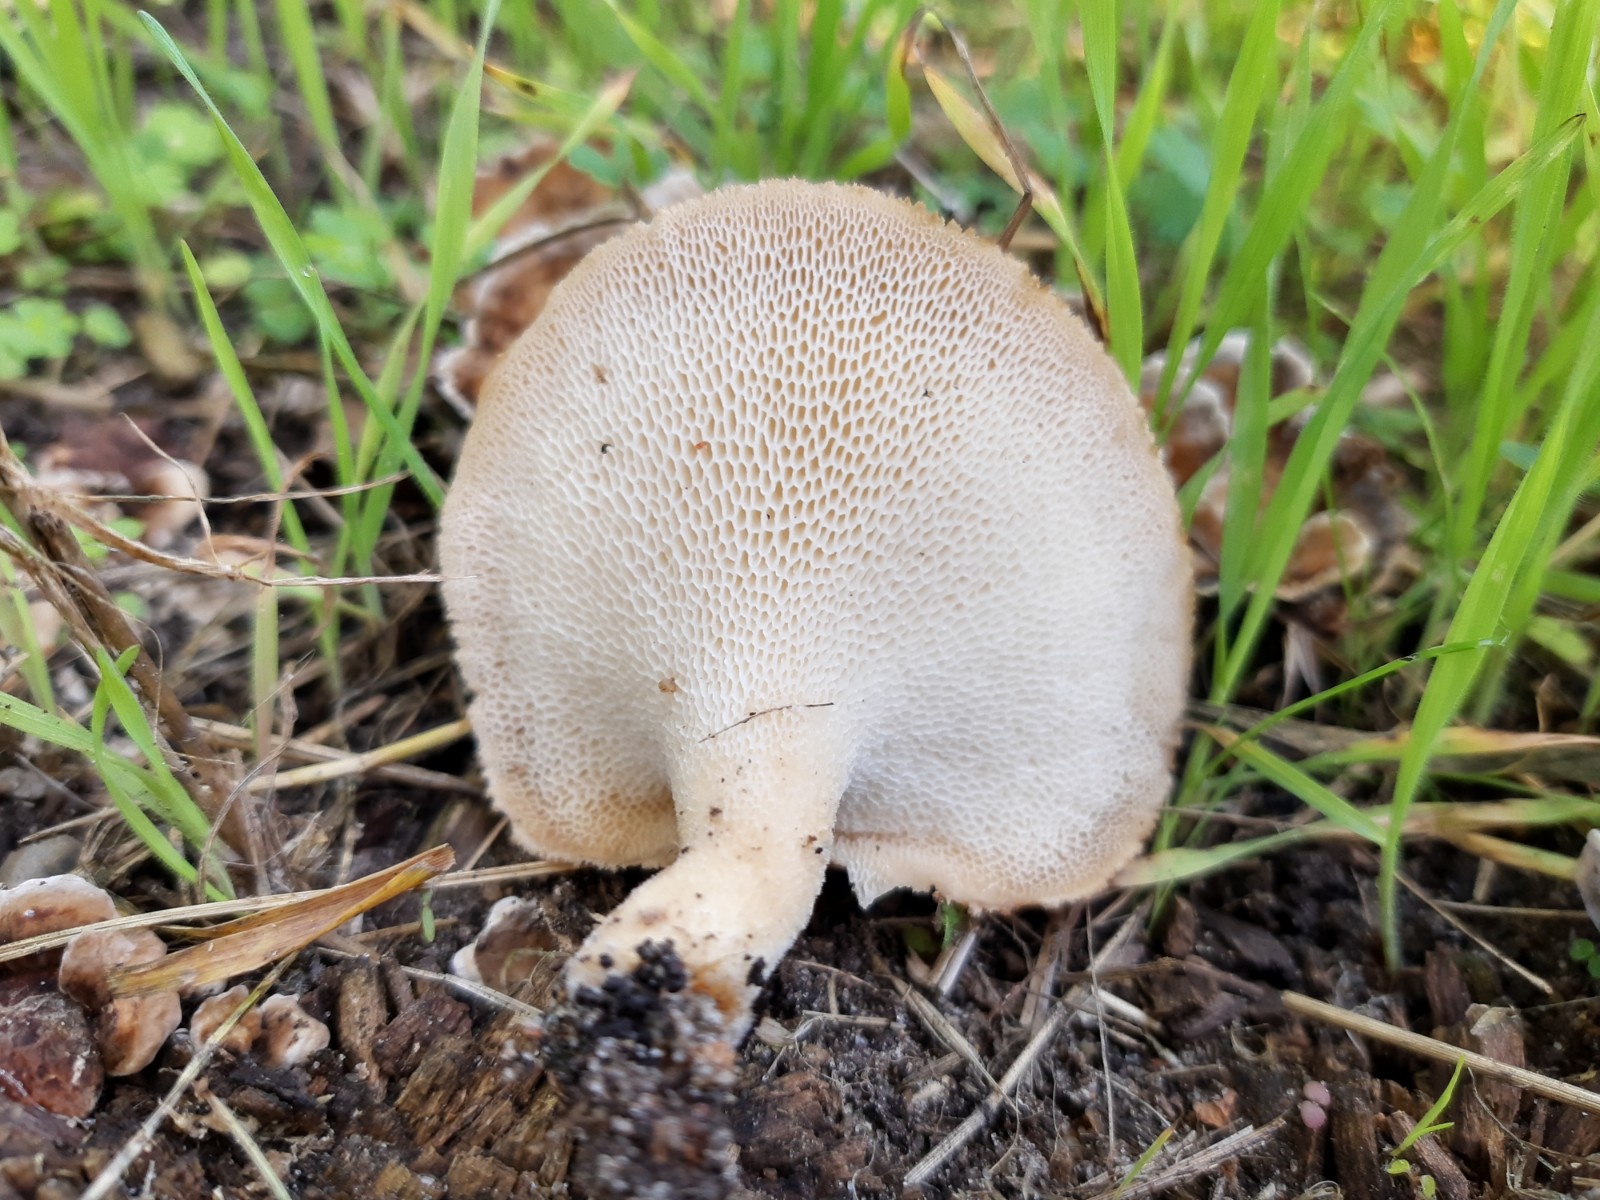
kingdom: Fungi
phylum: Basidiomycota
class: Agaricomycetes
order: Polyporales
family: Polyporaceae
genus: Polyporus
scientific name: Polyporus tuberaster
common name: knoldet stilkporesvamp
